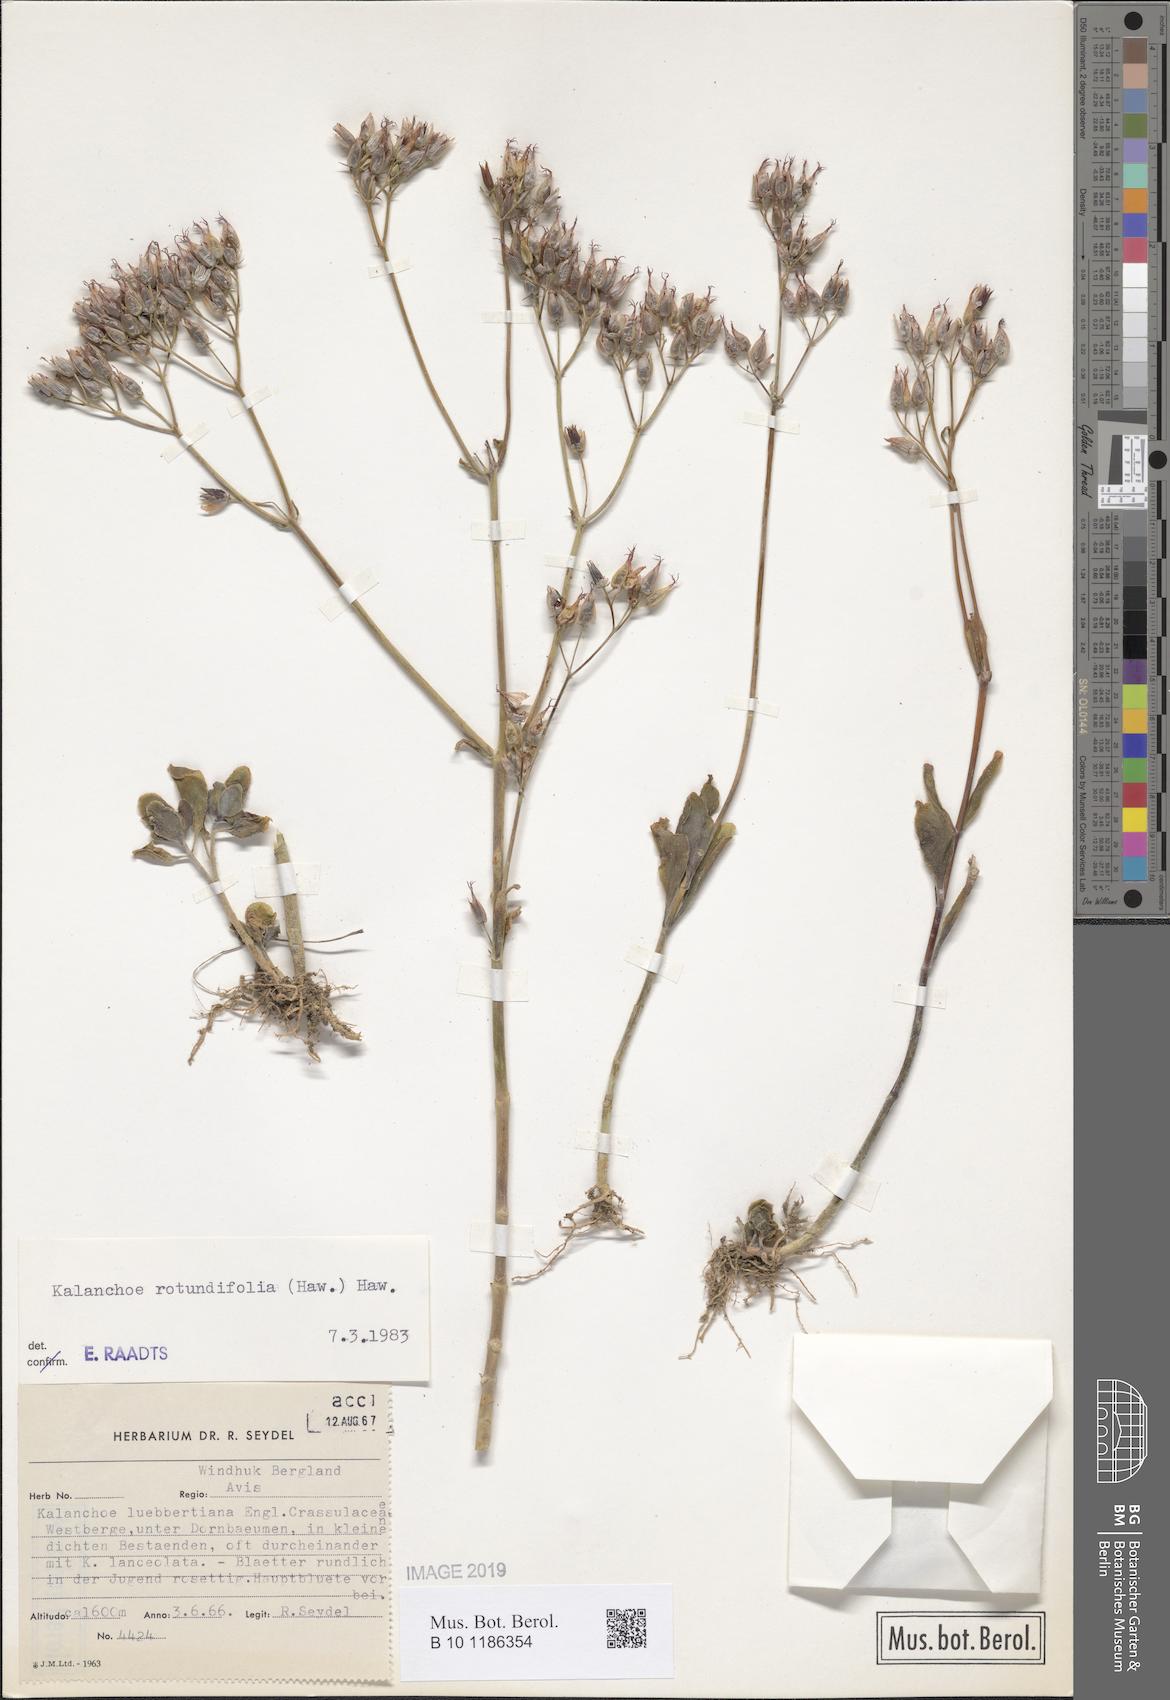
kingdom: Plantae
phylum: Tracheophyta
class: Magnoliopsida
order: Saxifragales
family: Crassulaceae
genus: Kalanchoe
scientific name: Kalanchoe rotundifolia
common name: Common kalanchoe
